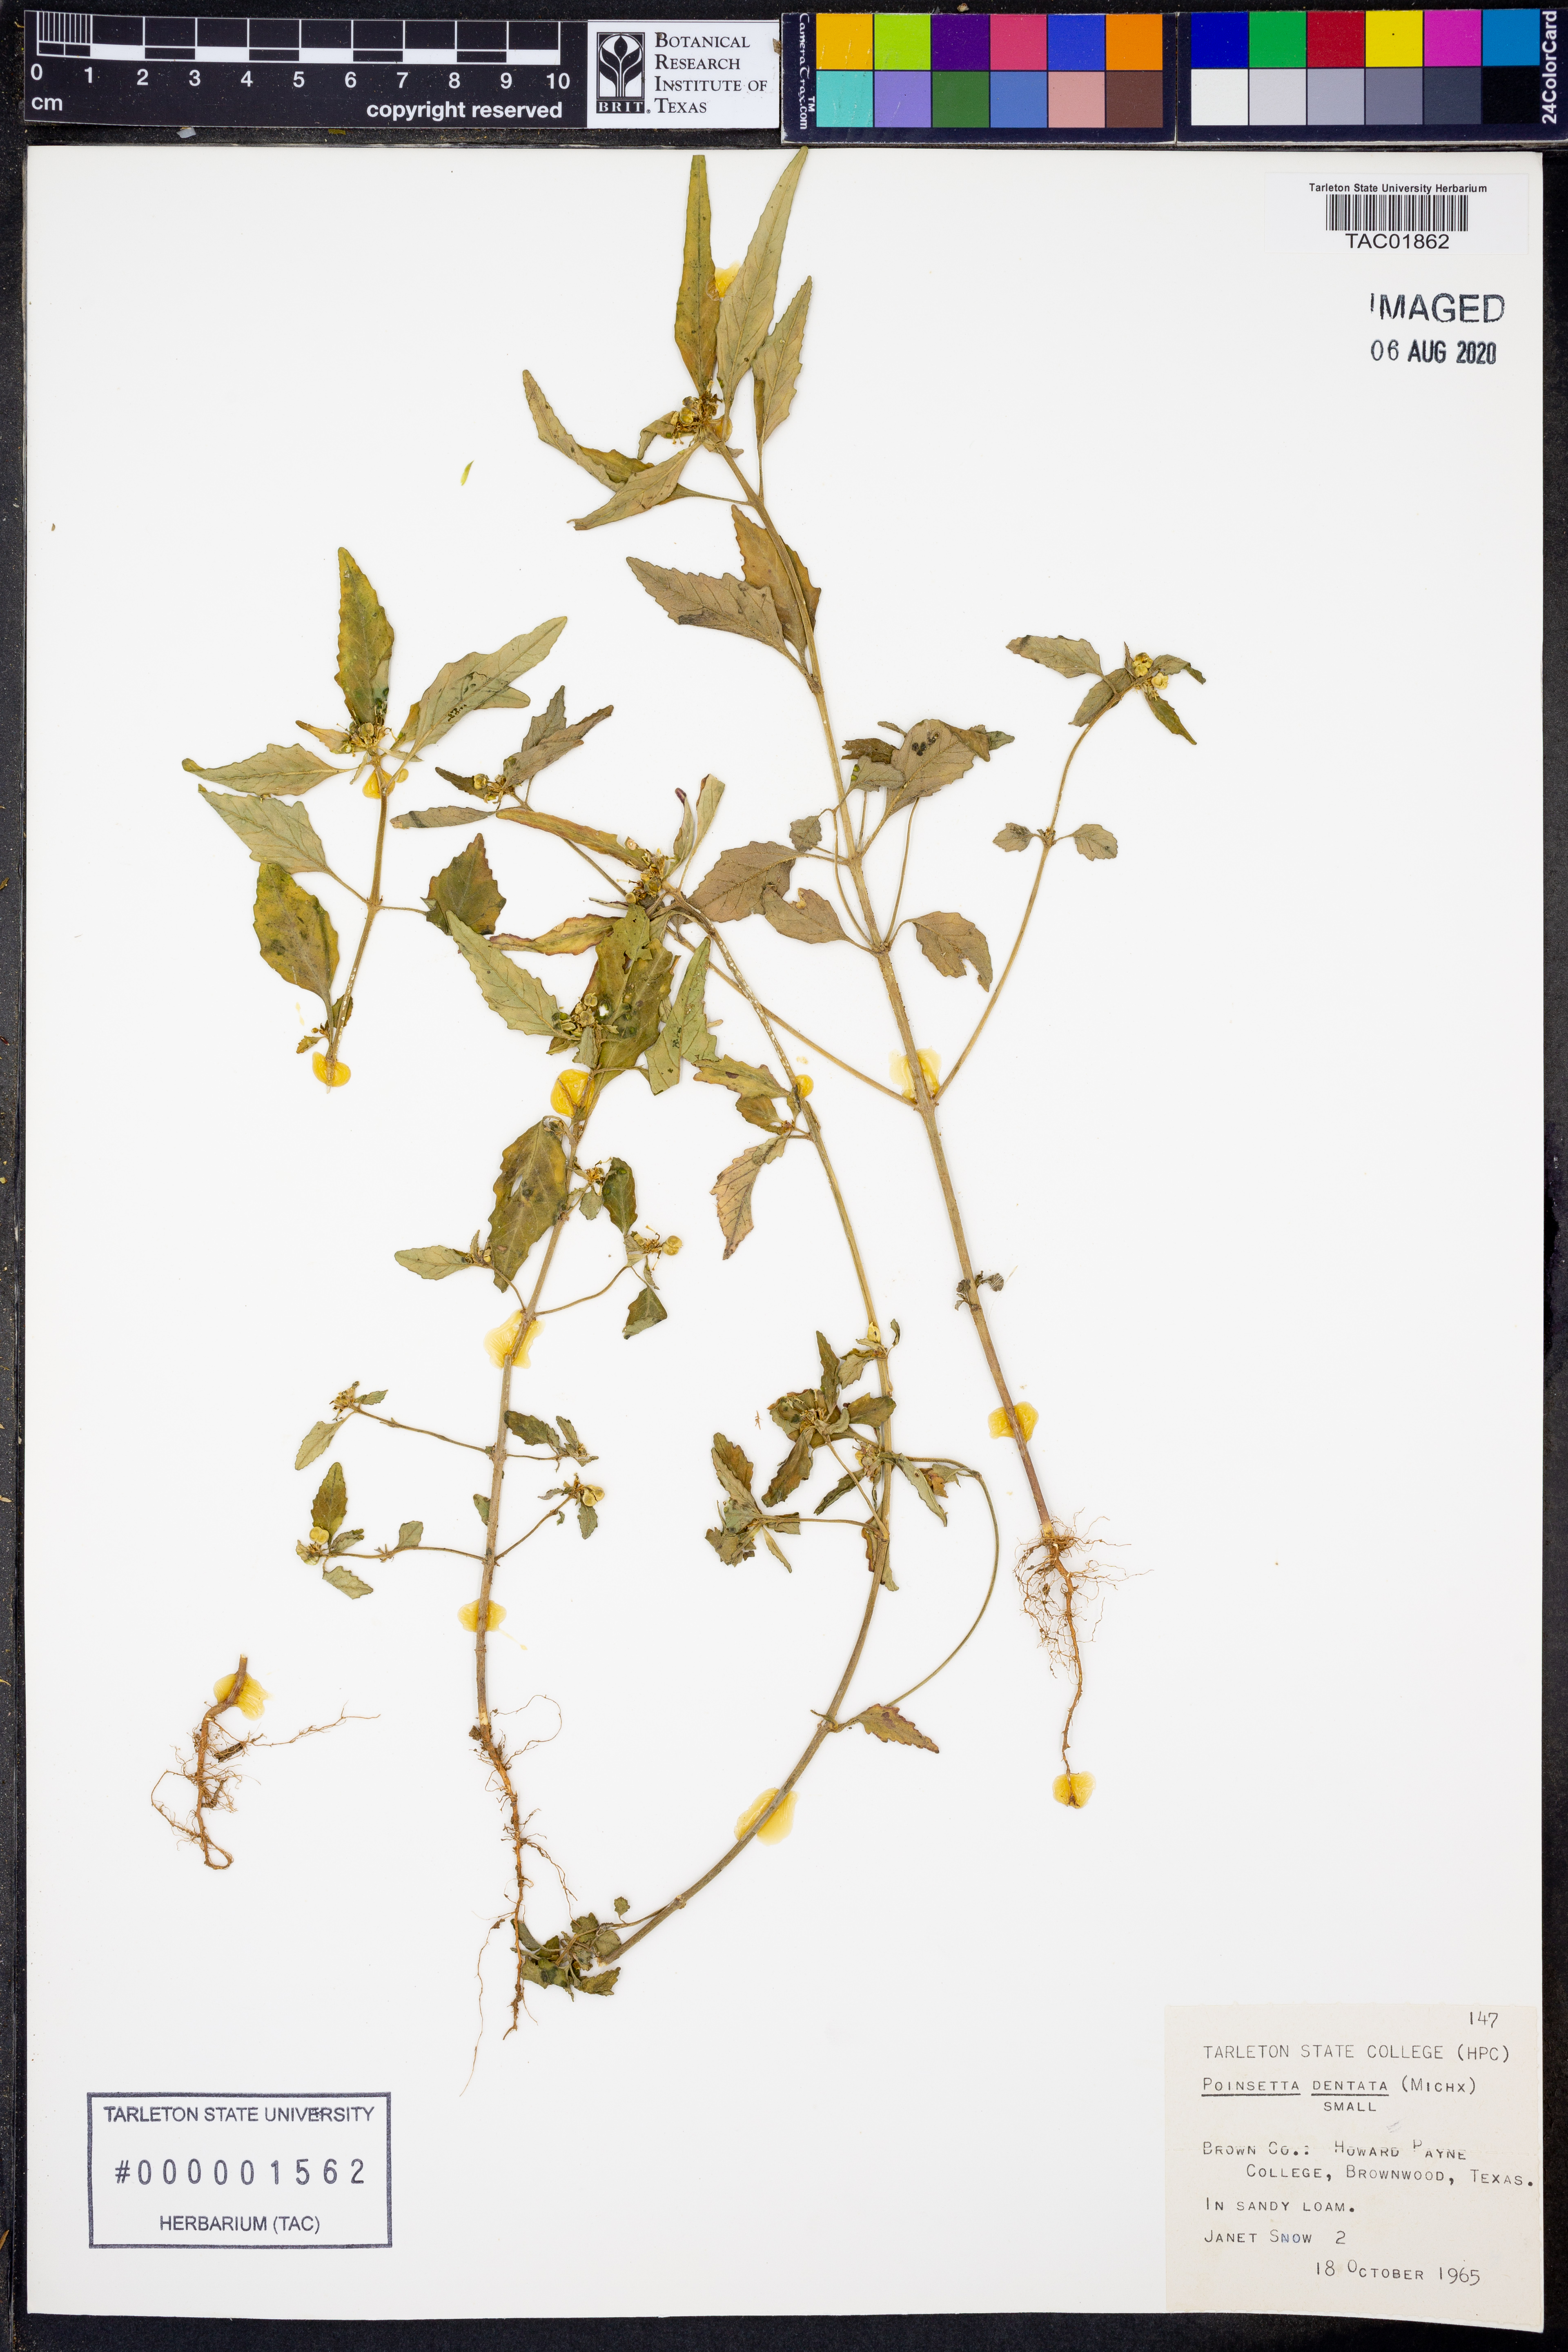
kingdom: Plantae
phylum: Tracheophyta
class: Magnoliopsida
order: Malpighiales
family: Euphorbiaceae
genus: Euphorbia
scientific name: Euphorbia dentata
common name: Dentate spurge
